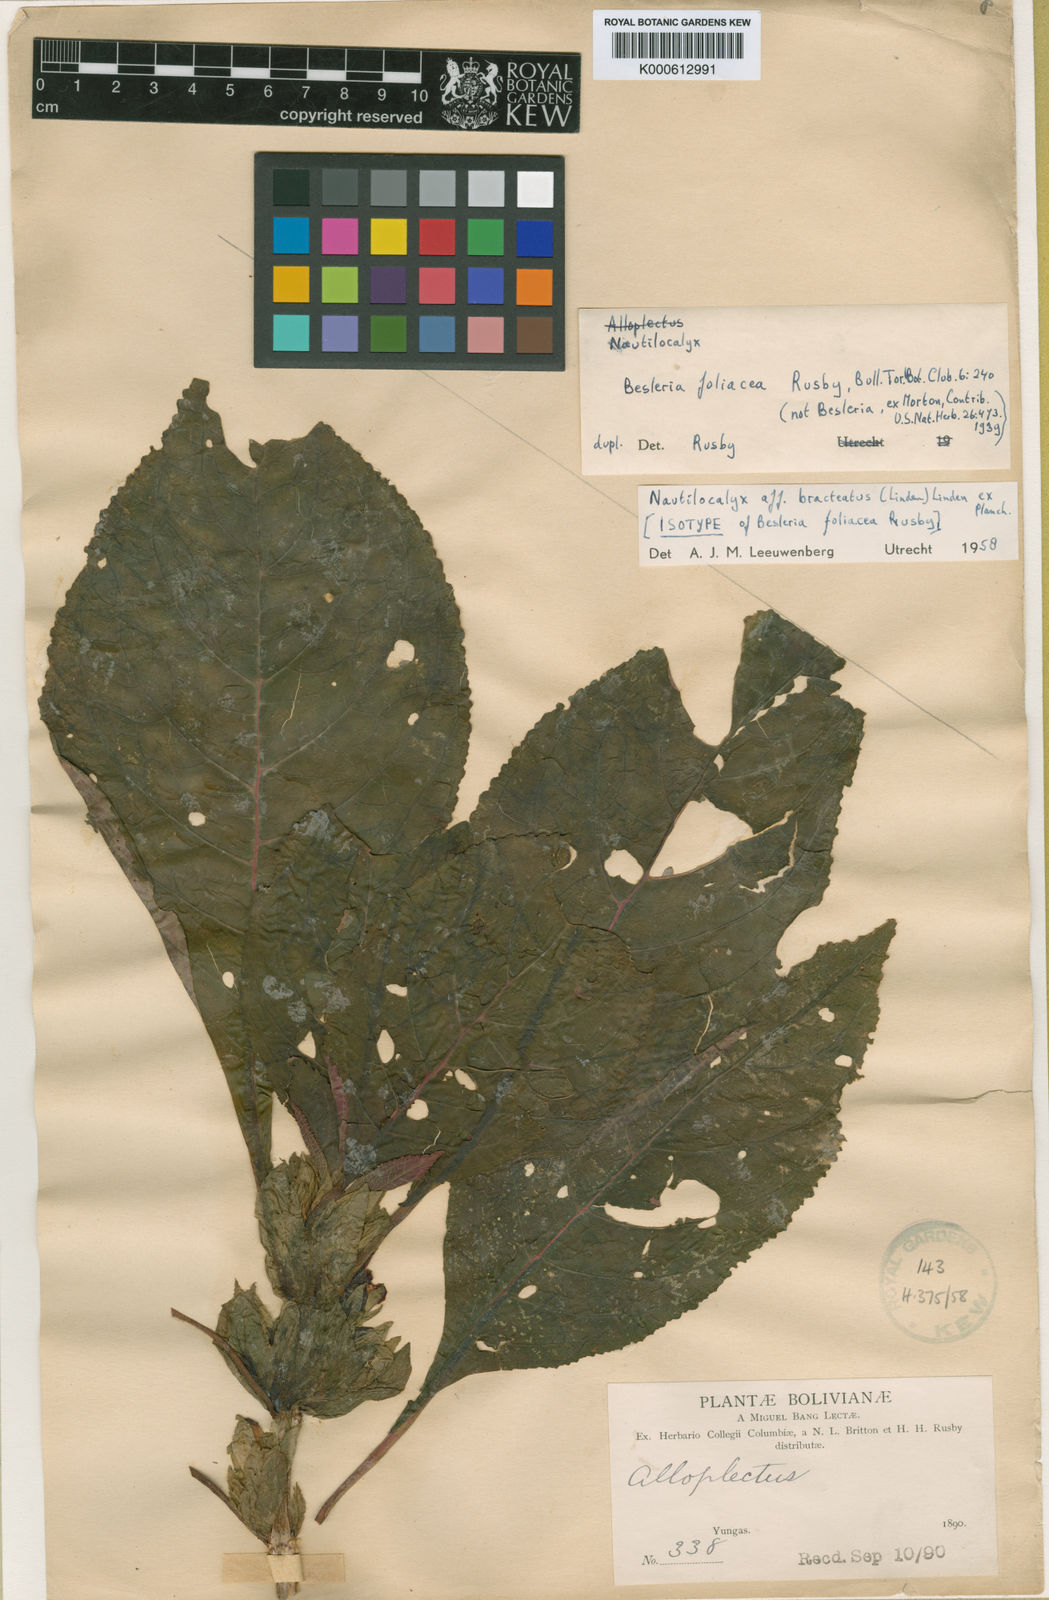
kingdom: Plantae
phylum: Tracheophyta
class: Magnoliopsida
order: Lamiales
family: Gesneriaceae
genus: Nautilocalyx
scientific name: Nautilocalyx
